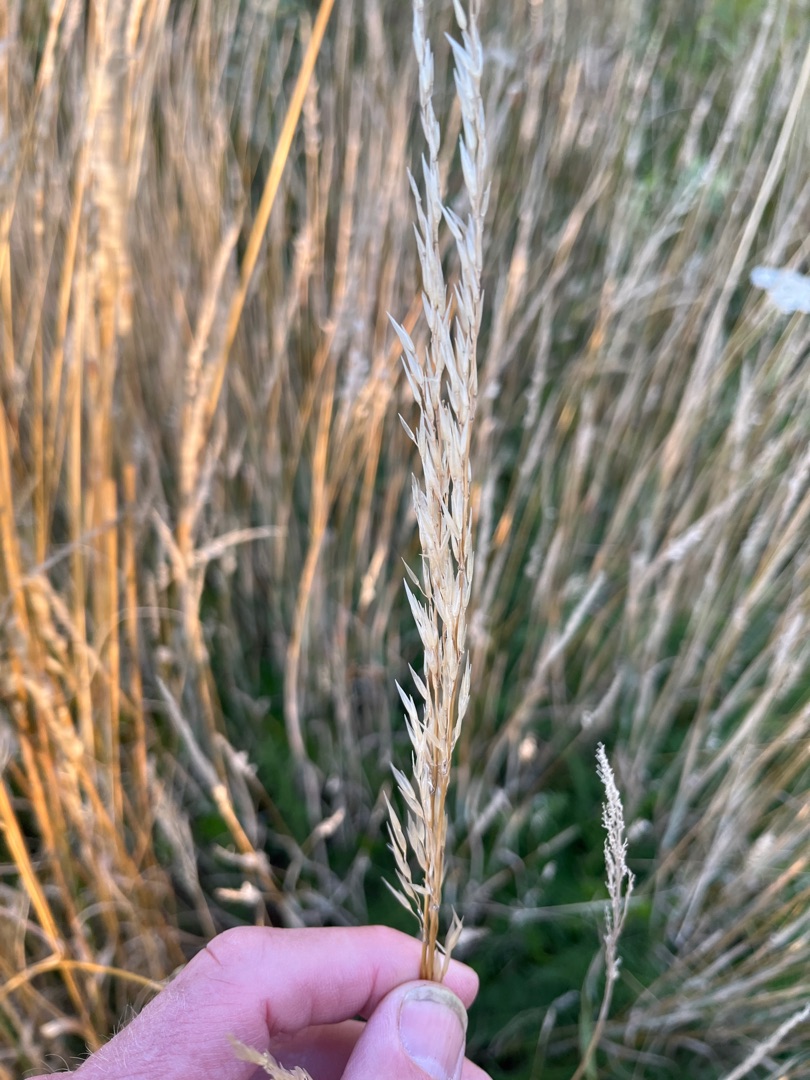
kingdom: Plantae
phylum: Tracheophyta
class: Liliopsida
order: Poales
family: Poaceae
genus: Arrhenatherum
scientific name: Arrhenatherum elatius
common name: Draphavre
